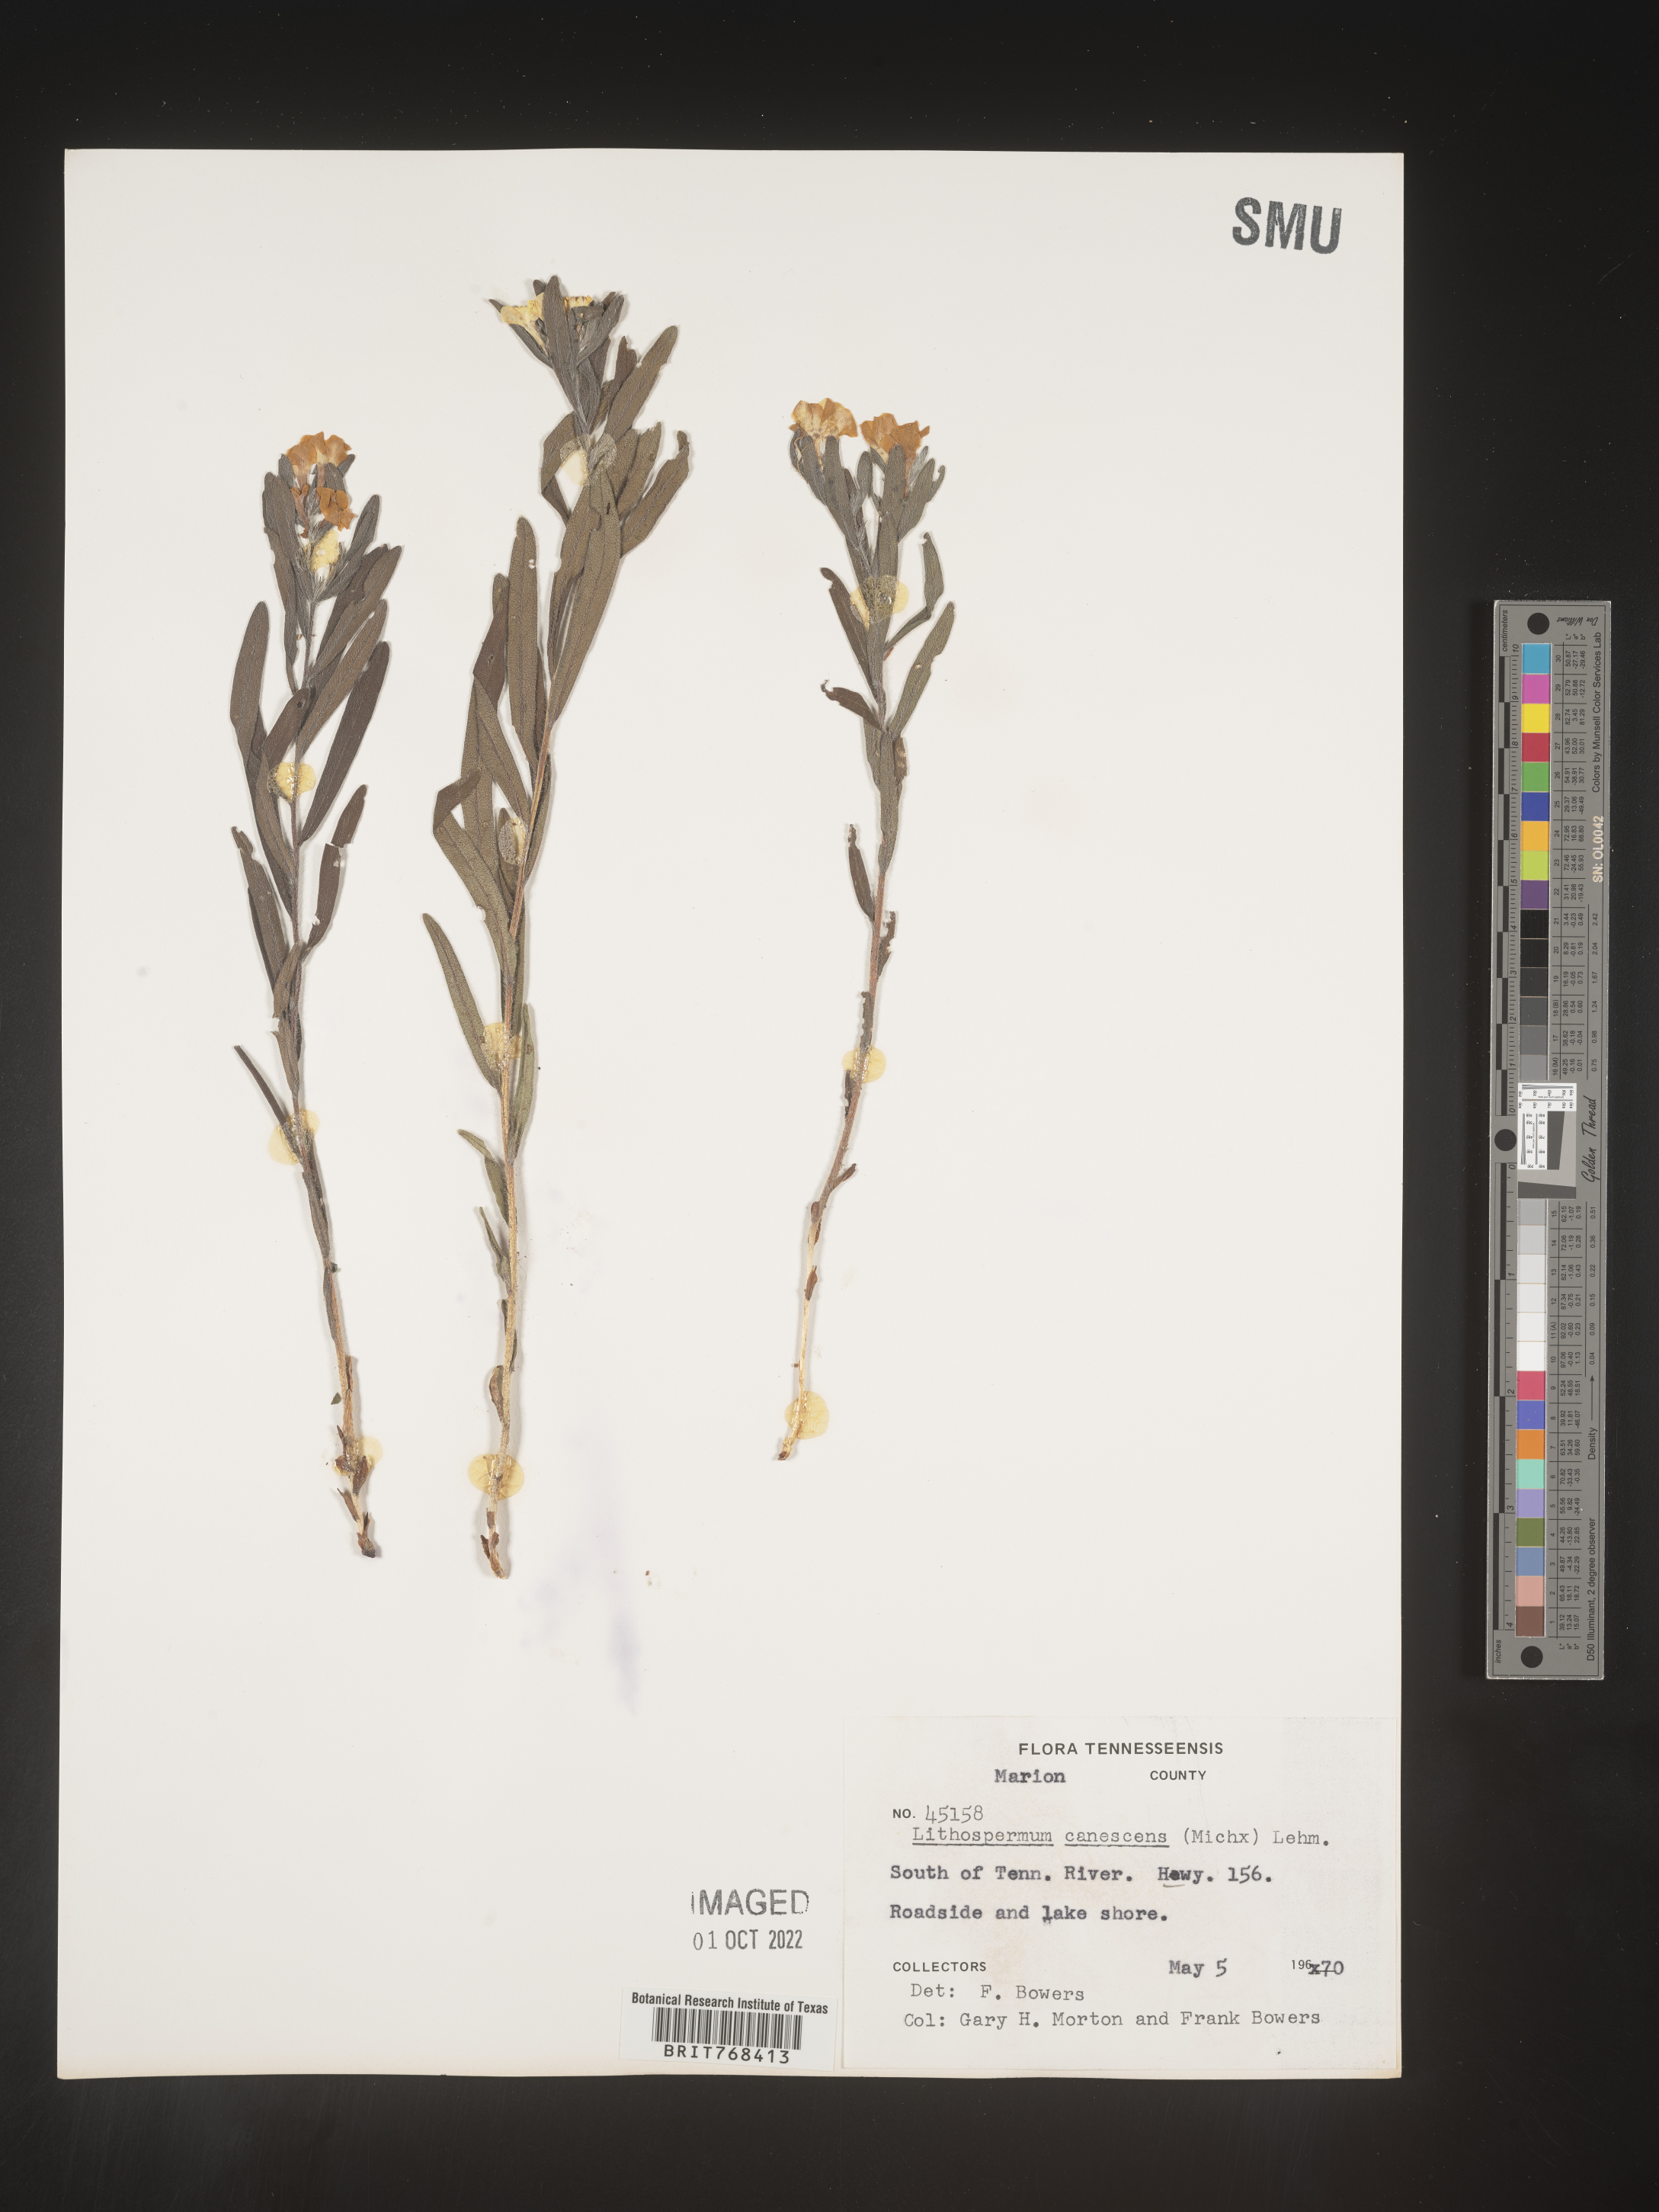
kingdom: Plantae
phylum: Tracheophyta
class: Magnoliopsida
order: Boraginales
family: Boraginaceae
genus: Lithospermum
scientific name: Lithospermum canescens
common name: Hoary puccoon
